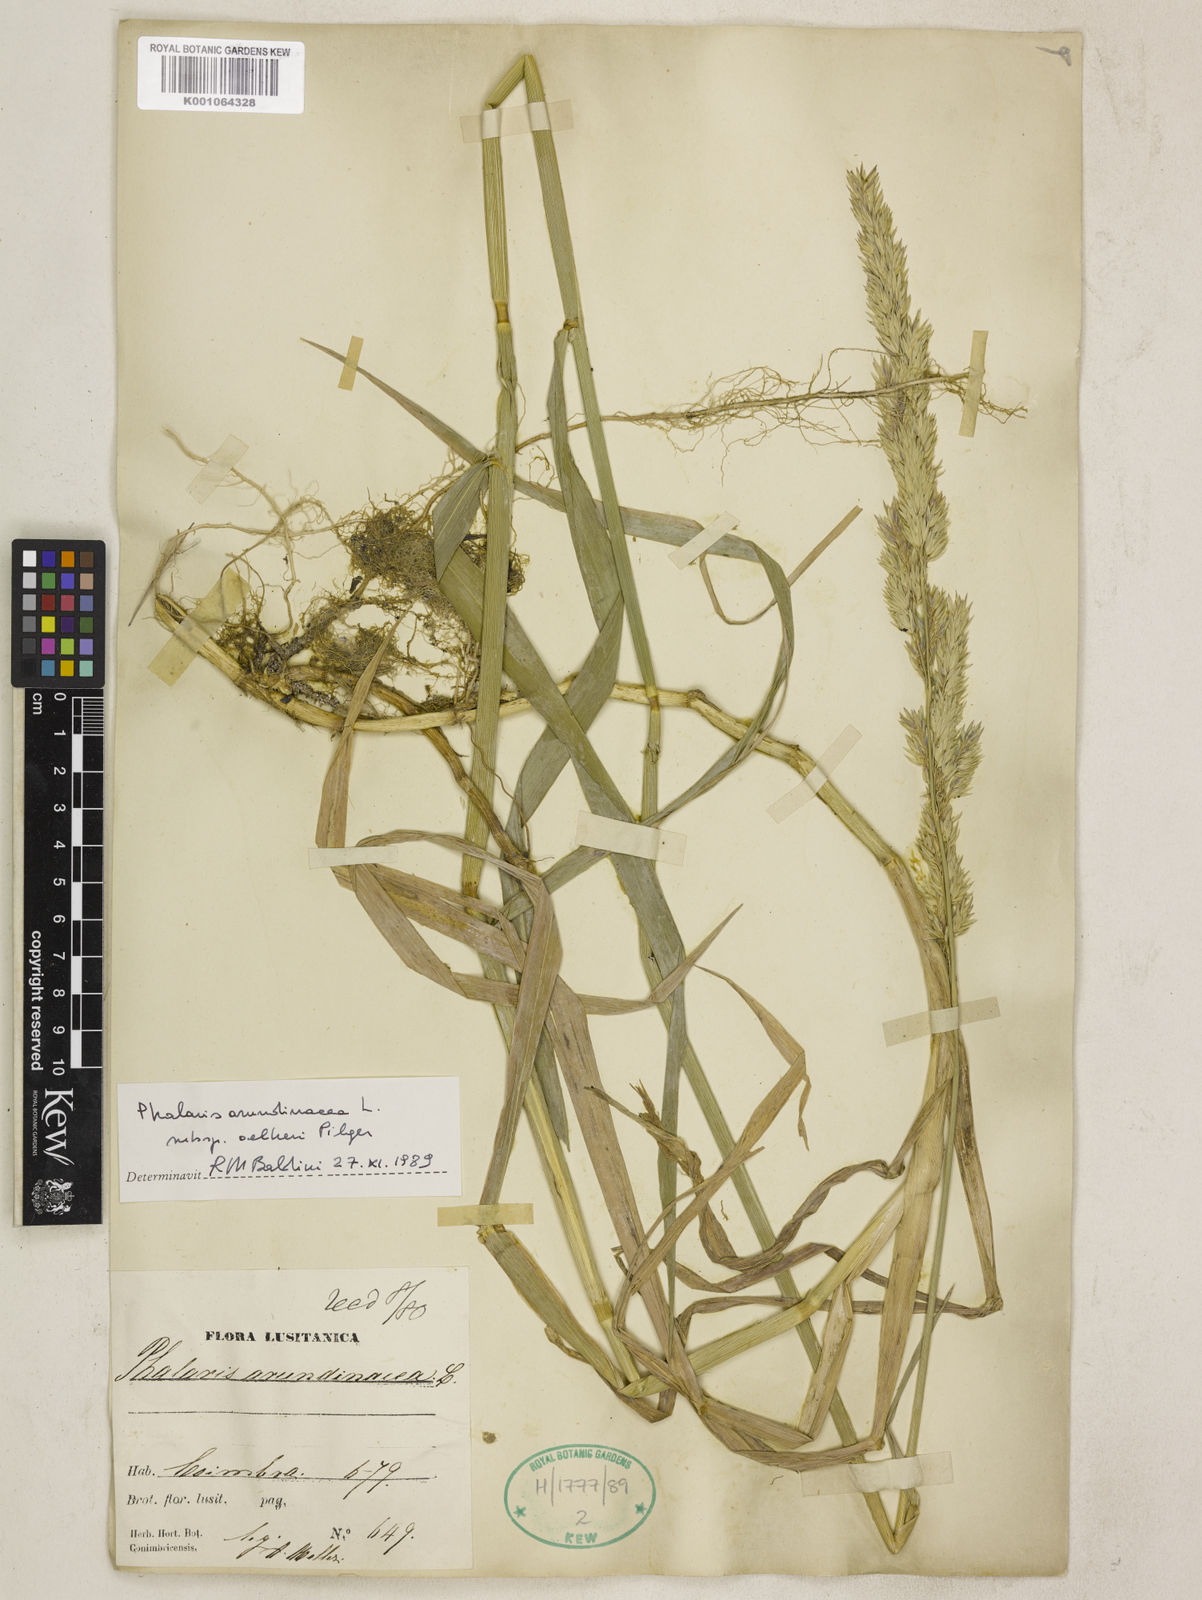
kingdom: Plantae
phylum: Tracheophyta
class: Liliopsida
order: Poales
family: Poaceae
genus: Phalaris
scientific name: Phalaris arundinacea
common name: Reed canary-grass
